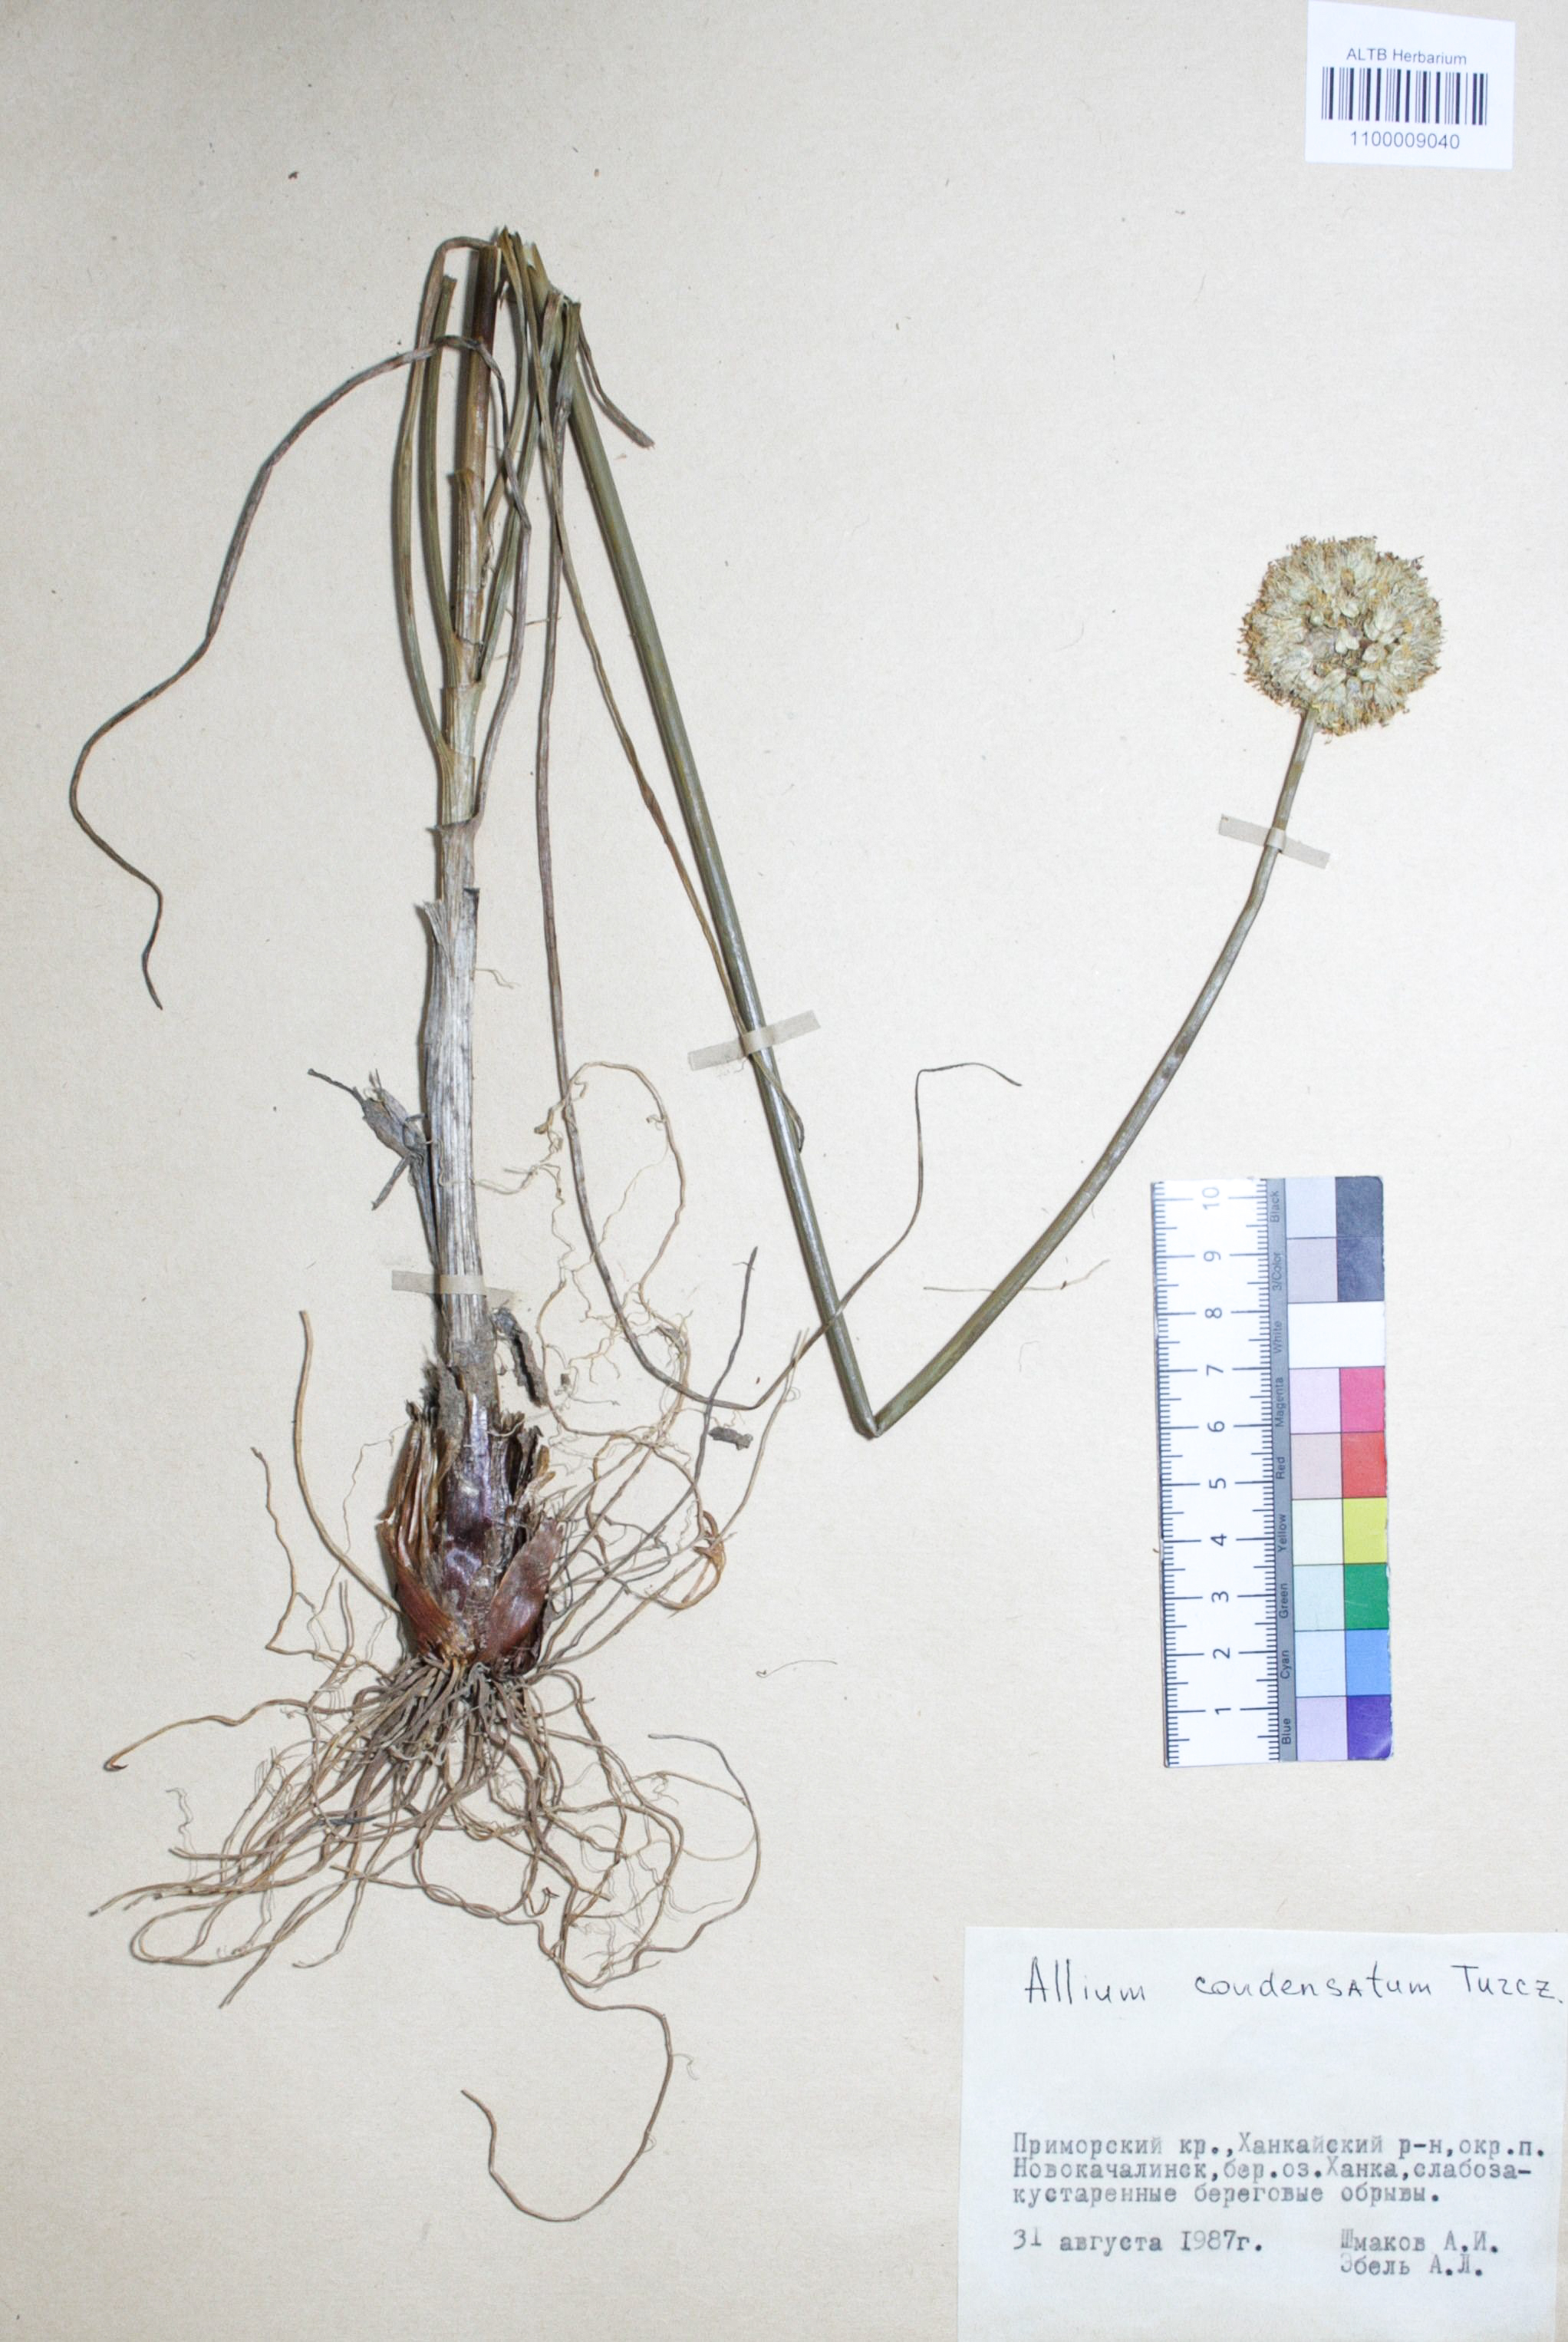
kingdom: Plantae
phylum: Tracheophyta
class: Liliopsida
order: Asparagales
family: Amaryllidaceae
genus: Allium
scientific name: Allium condensatum
